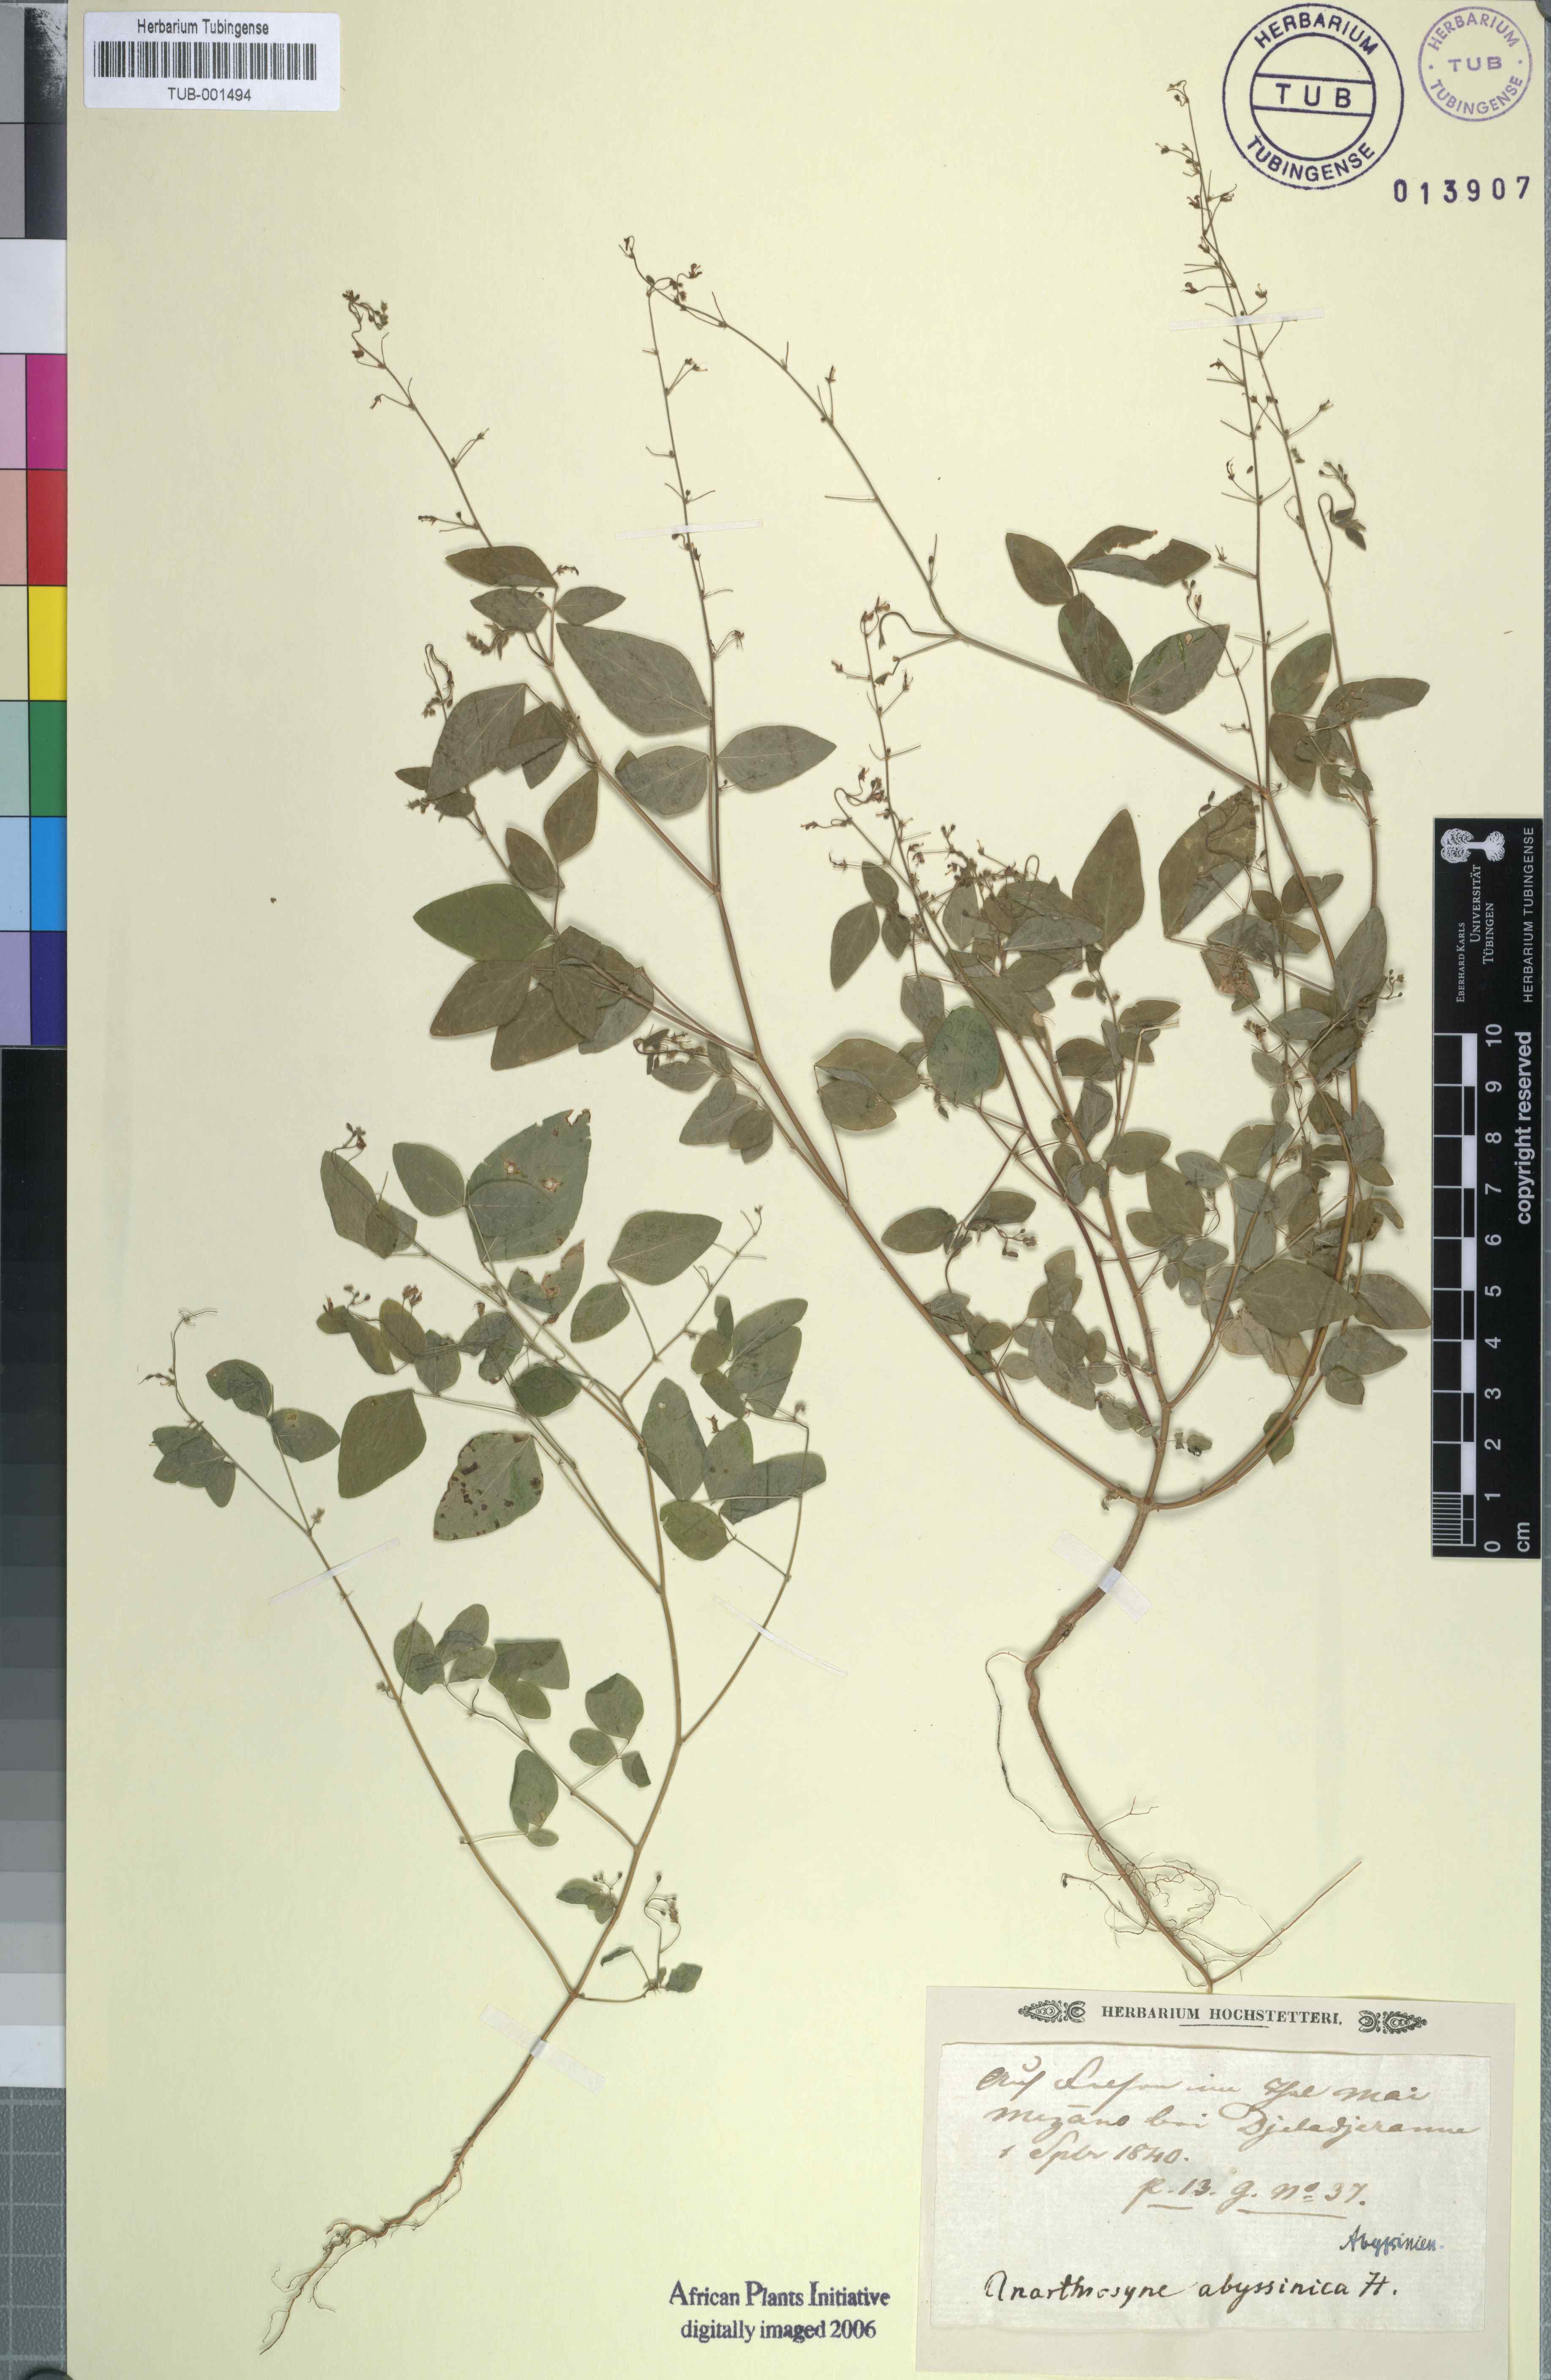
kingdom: Plantae
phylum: Tracheophyta
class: Magnoliopsida
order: Fabales
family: Fabaceae
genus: Desmodium
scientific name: Desmodium procumbens
